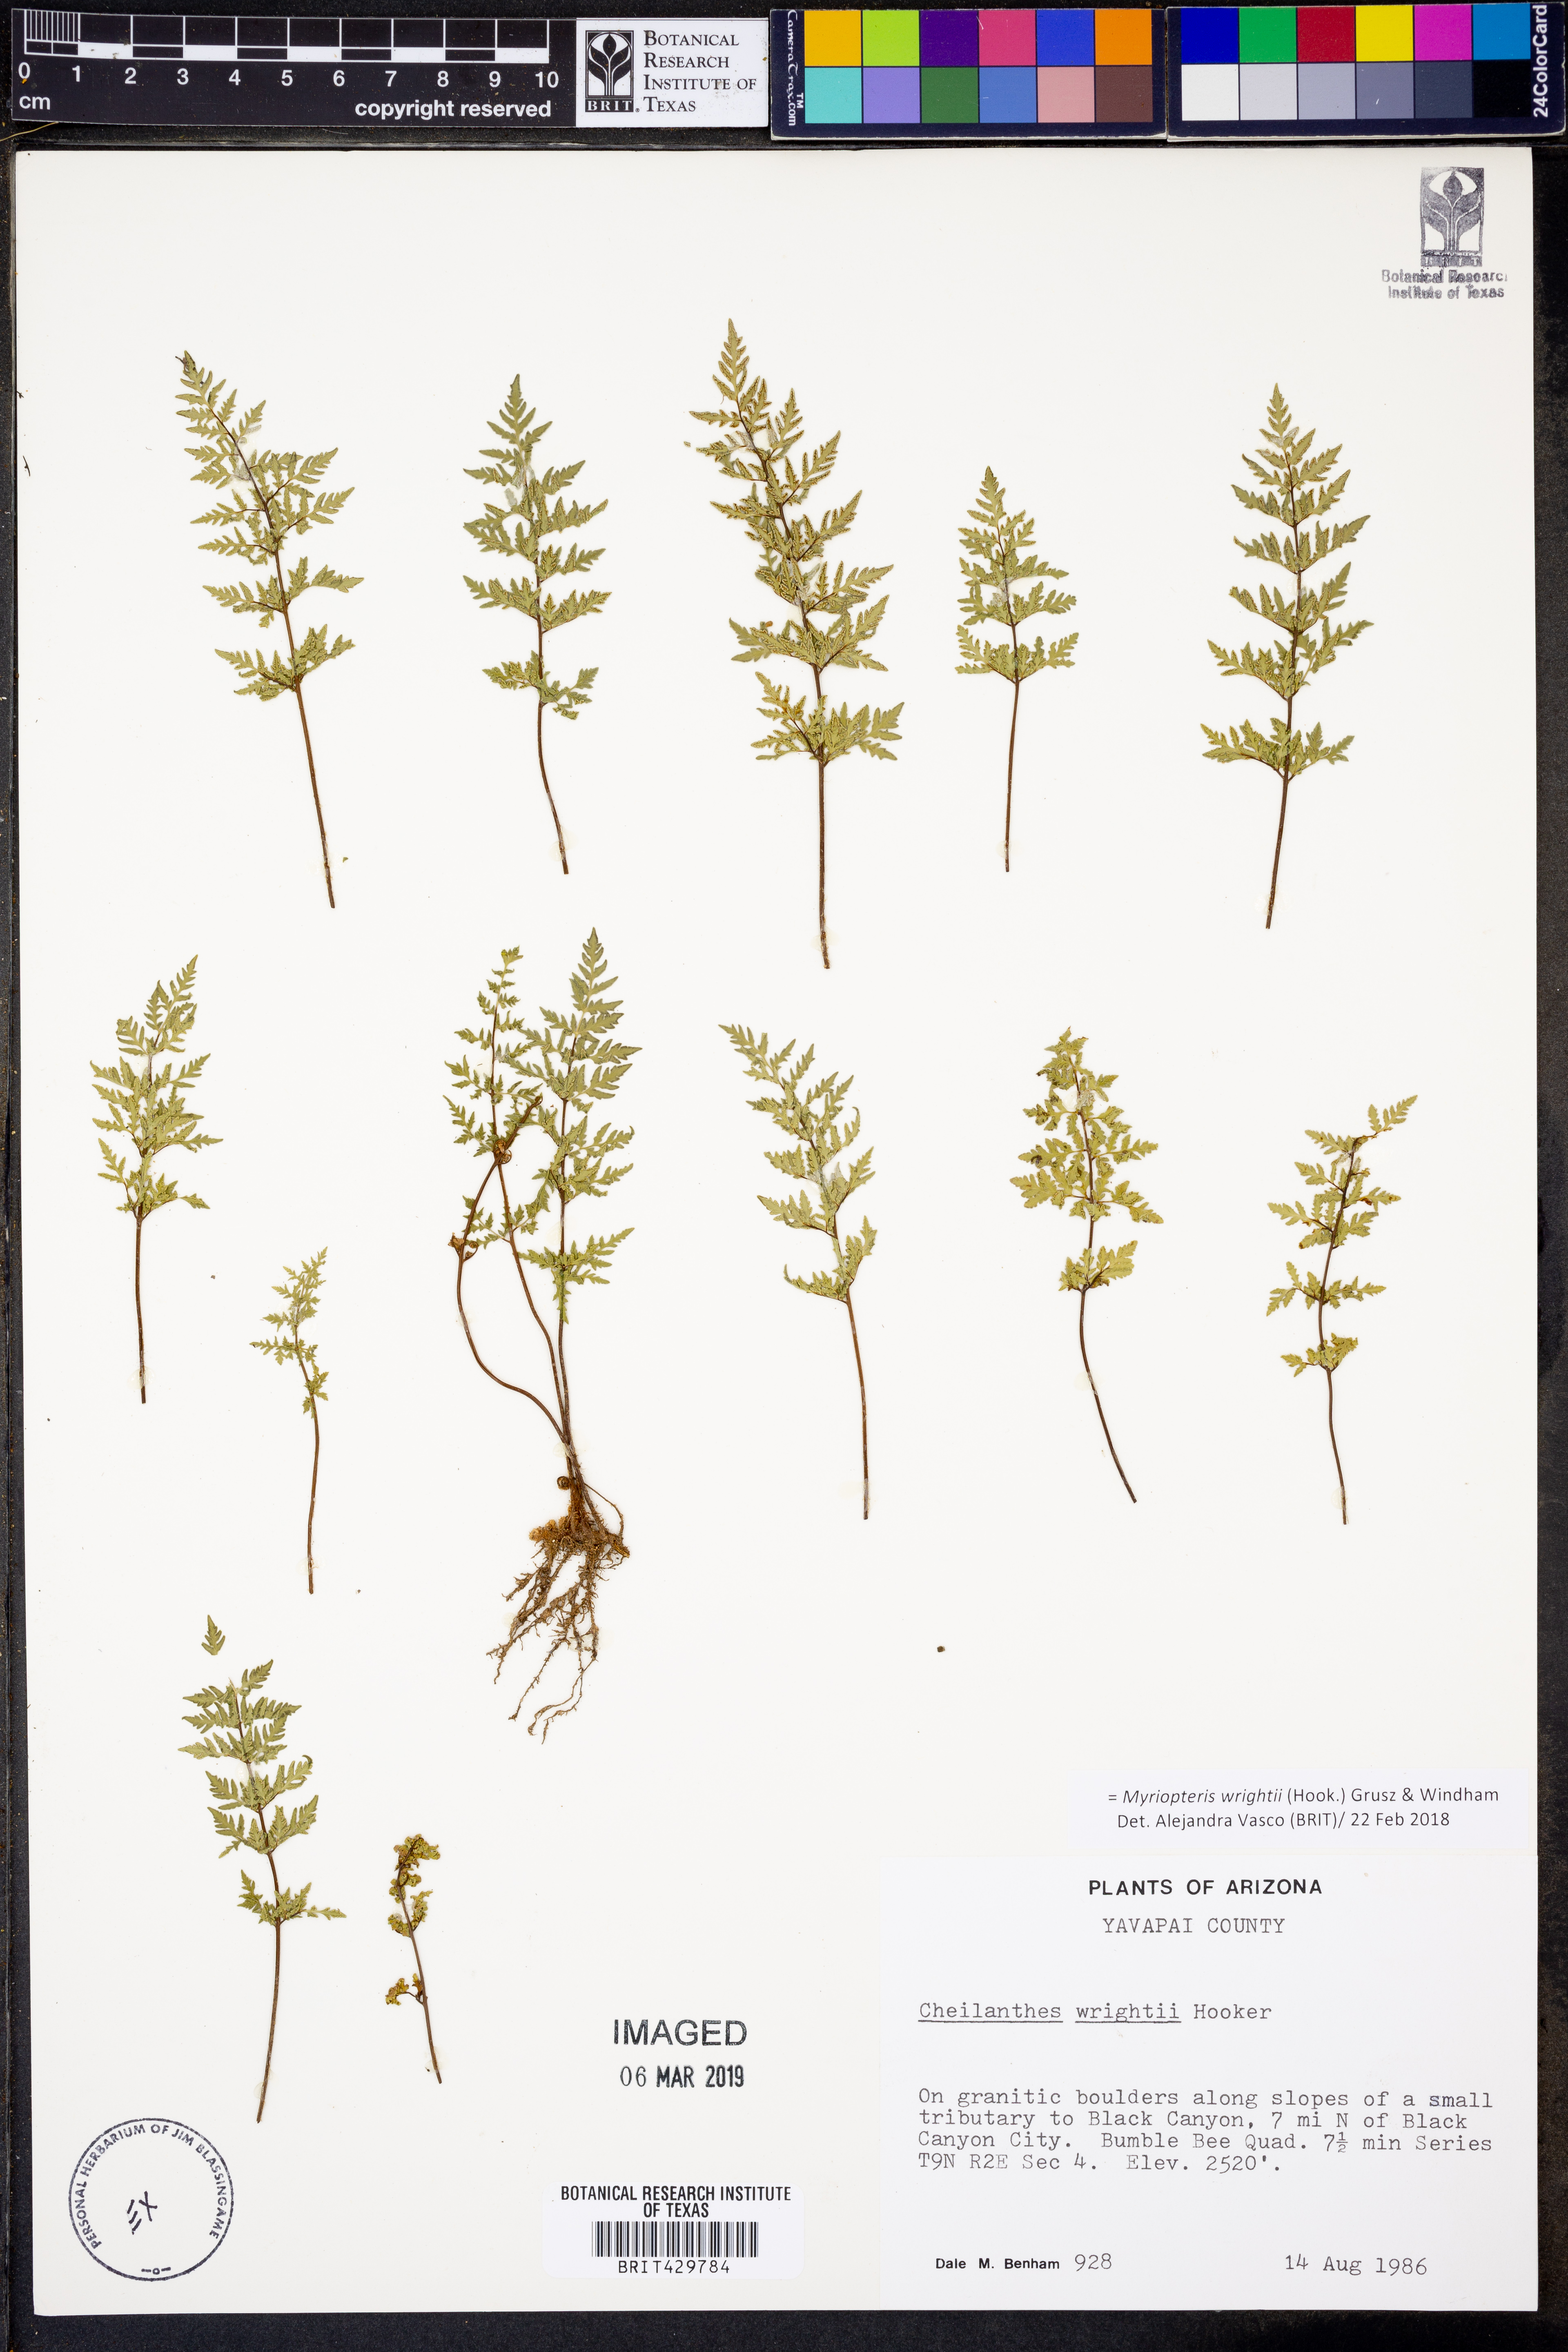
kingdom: Plantae
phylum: Tracheophyta
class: Polypodiopsida
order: Polypodiales
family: Pteridaceae
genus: Myriopteris
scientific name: Myriopteris wrightii
